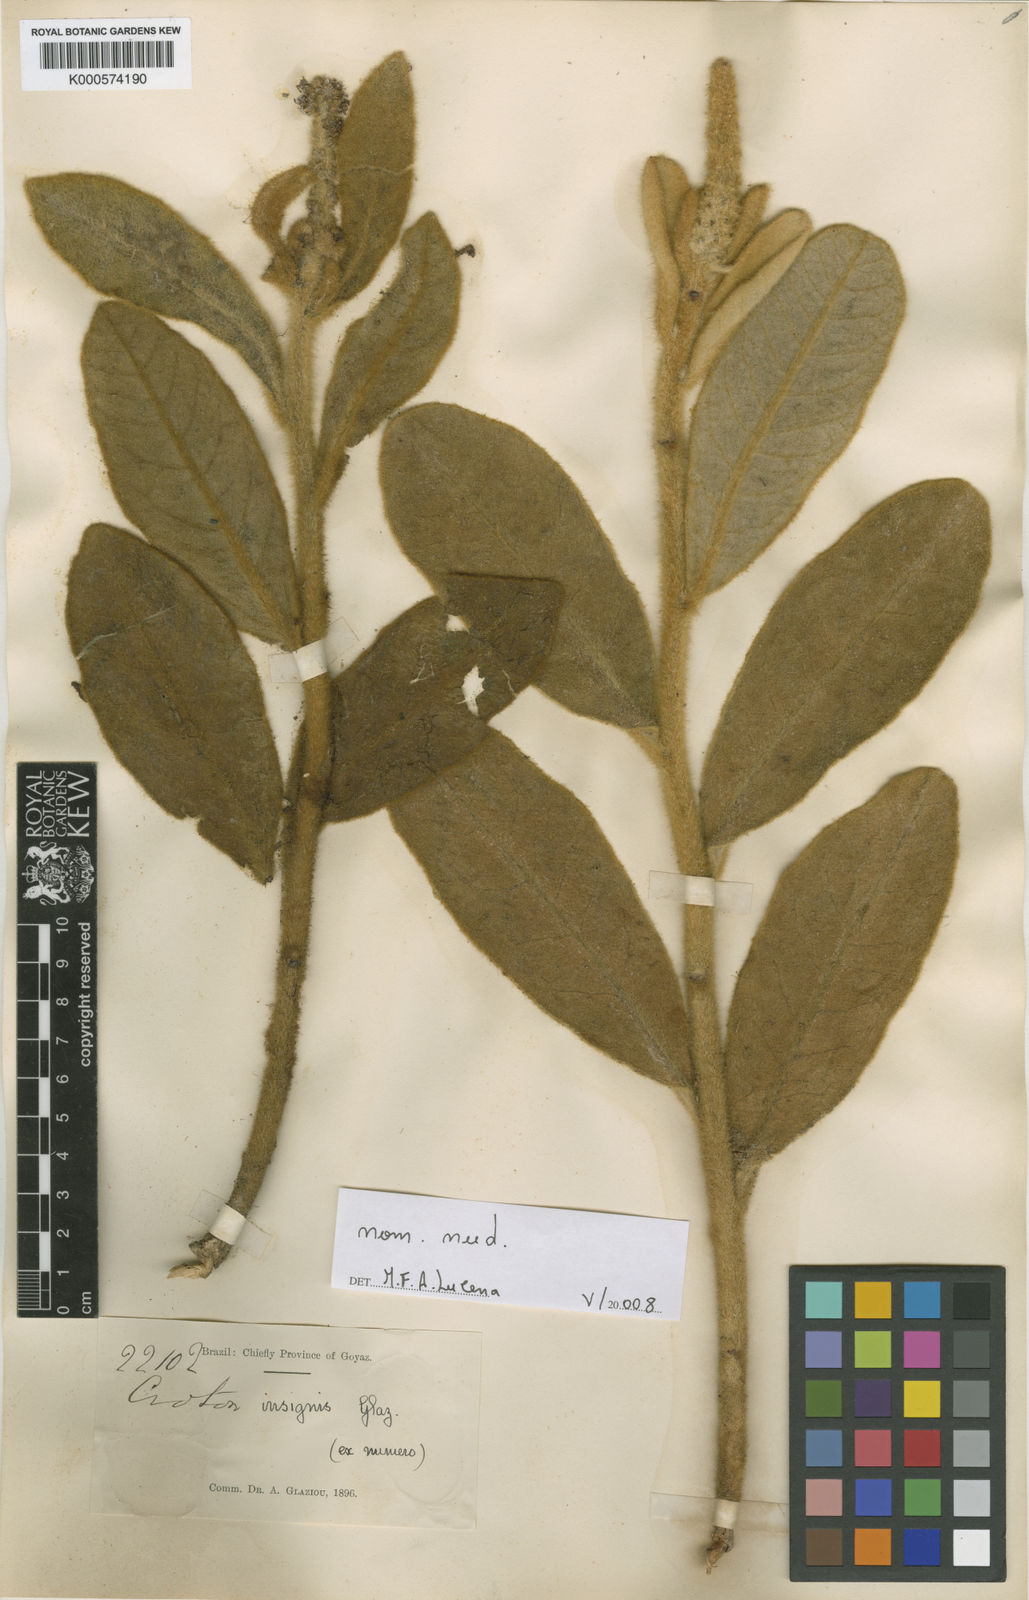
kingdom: Plantae
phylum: Tracheophyta
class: Magnoliopsida
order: Malpighiales
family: Euphorbiaceae
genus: Croton
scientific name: Croton insignis
